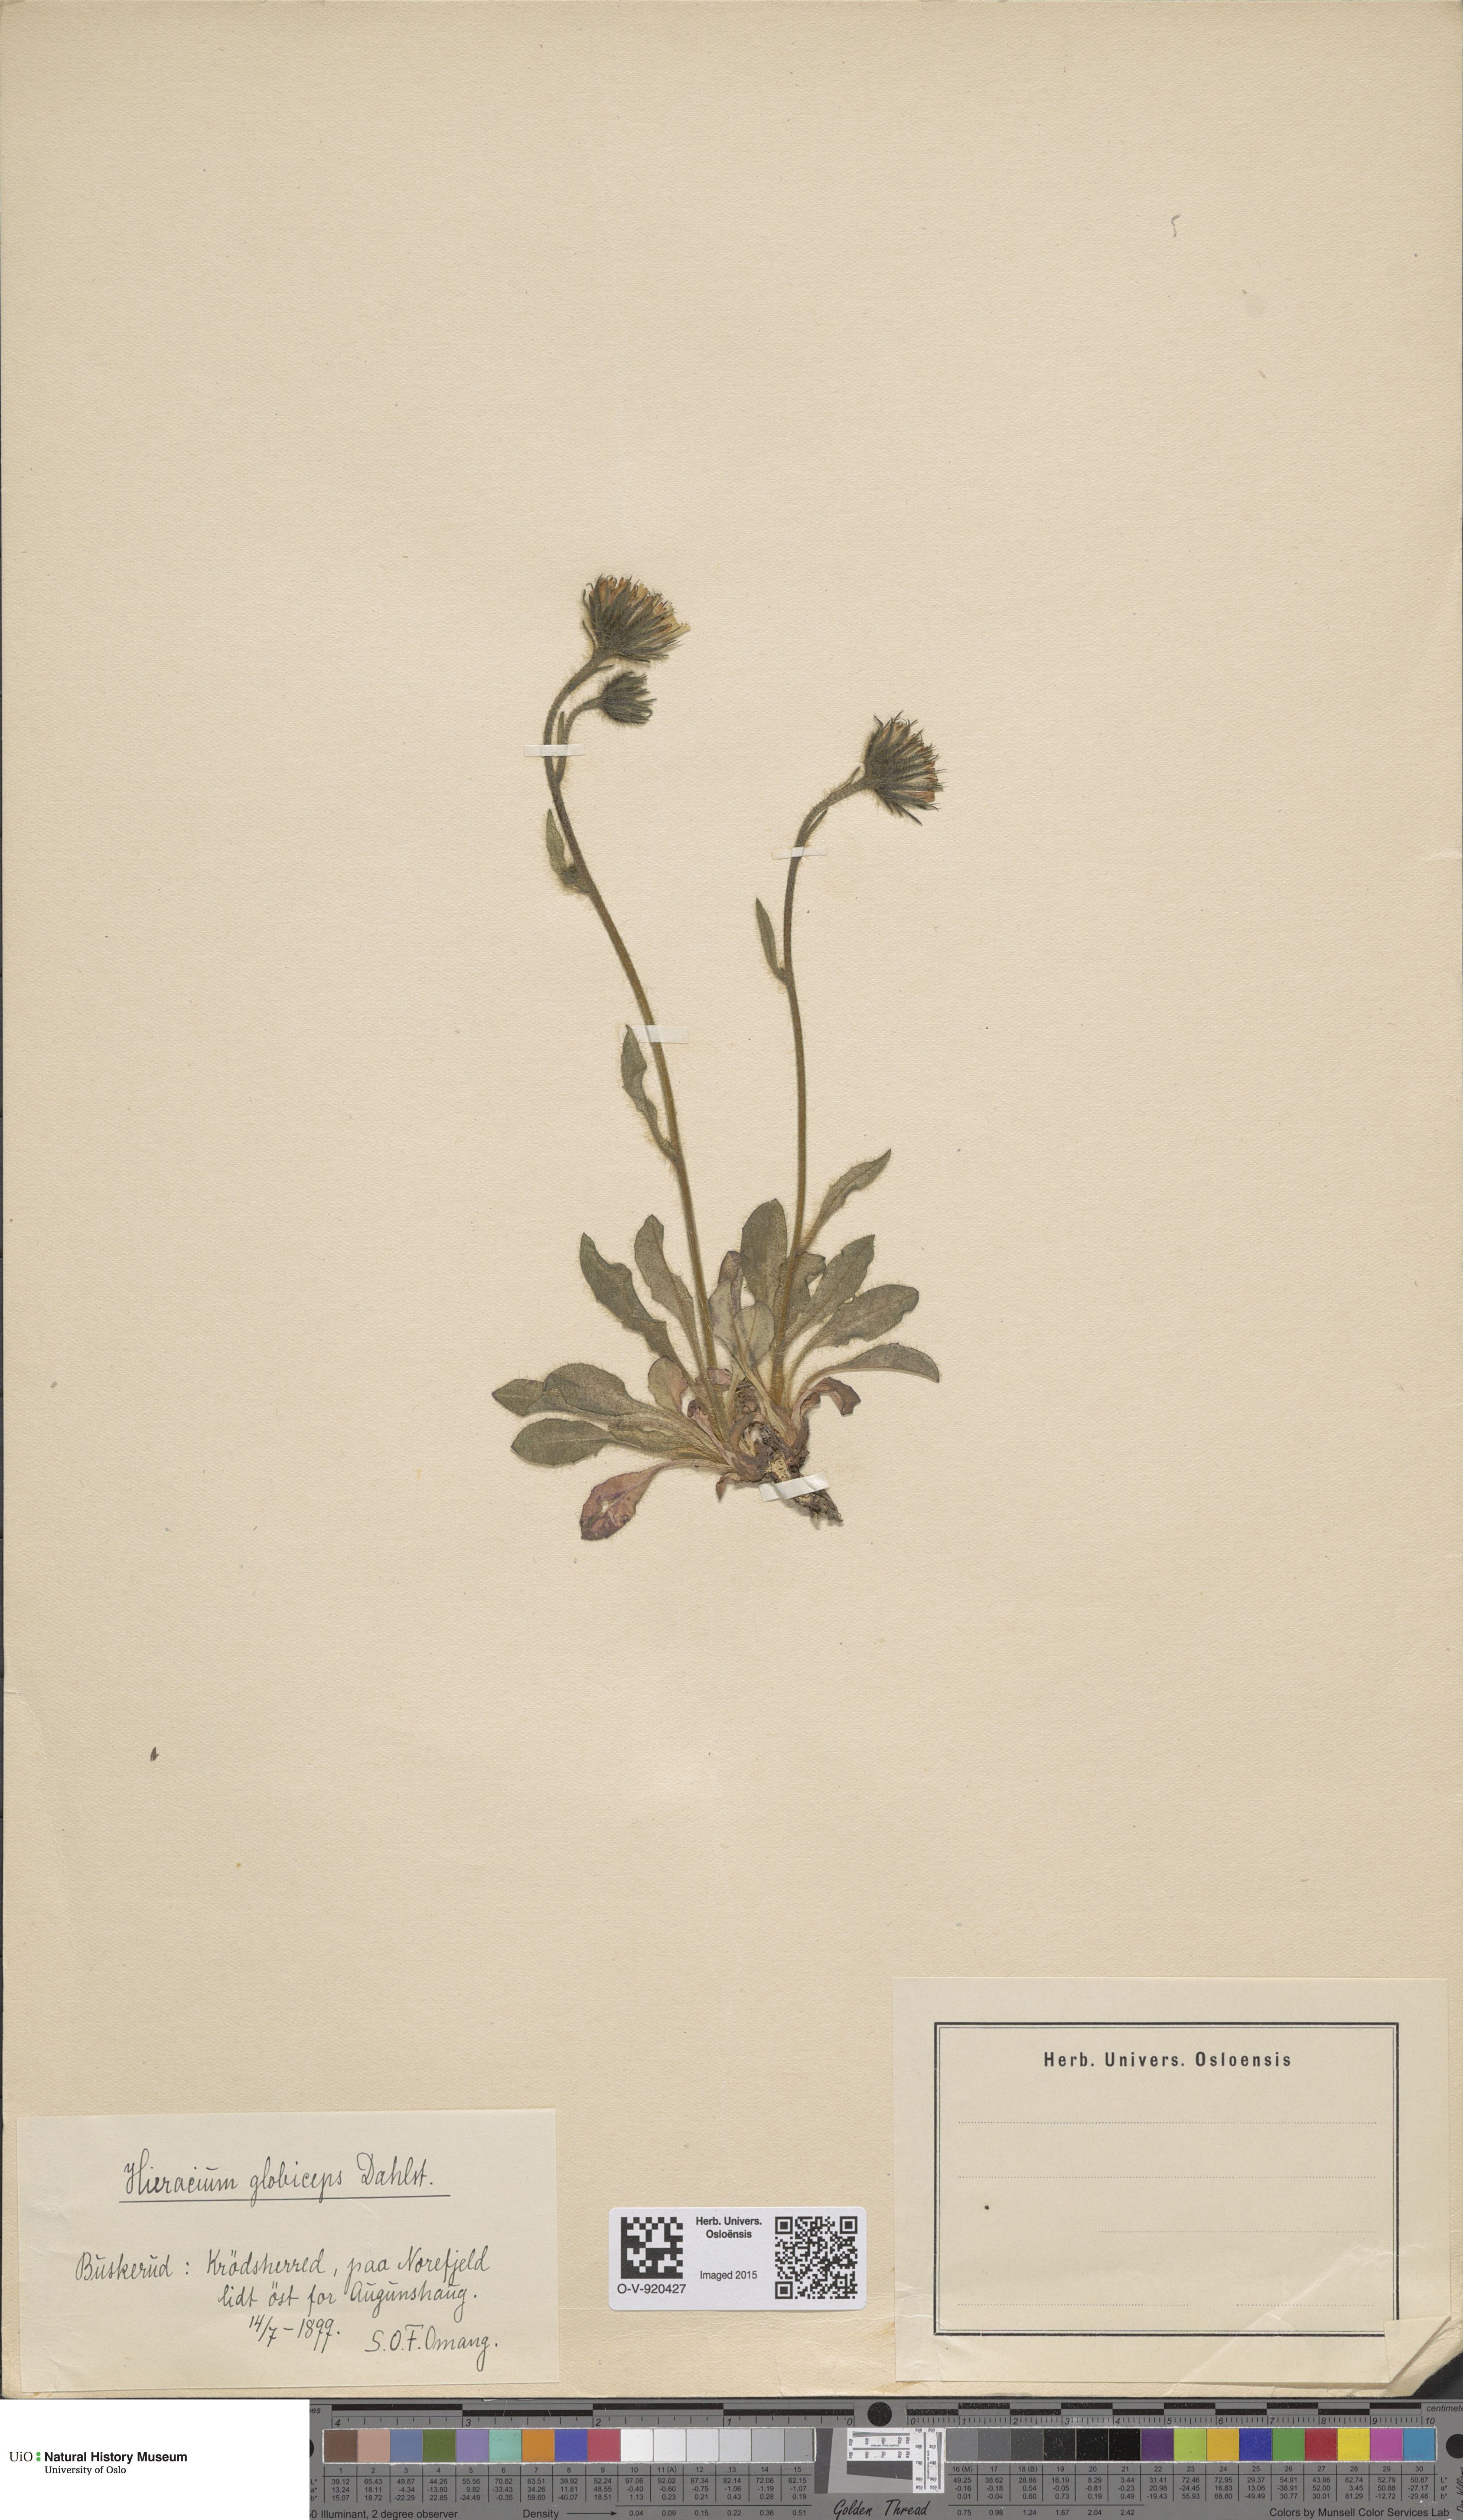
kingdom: Plantae
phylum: Tracheophyta
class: Magnoliopsida
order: Asterales
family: Asteraceae
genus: Hieracium
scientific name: Hieracium alpinum
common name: Alpine hawkweed
